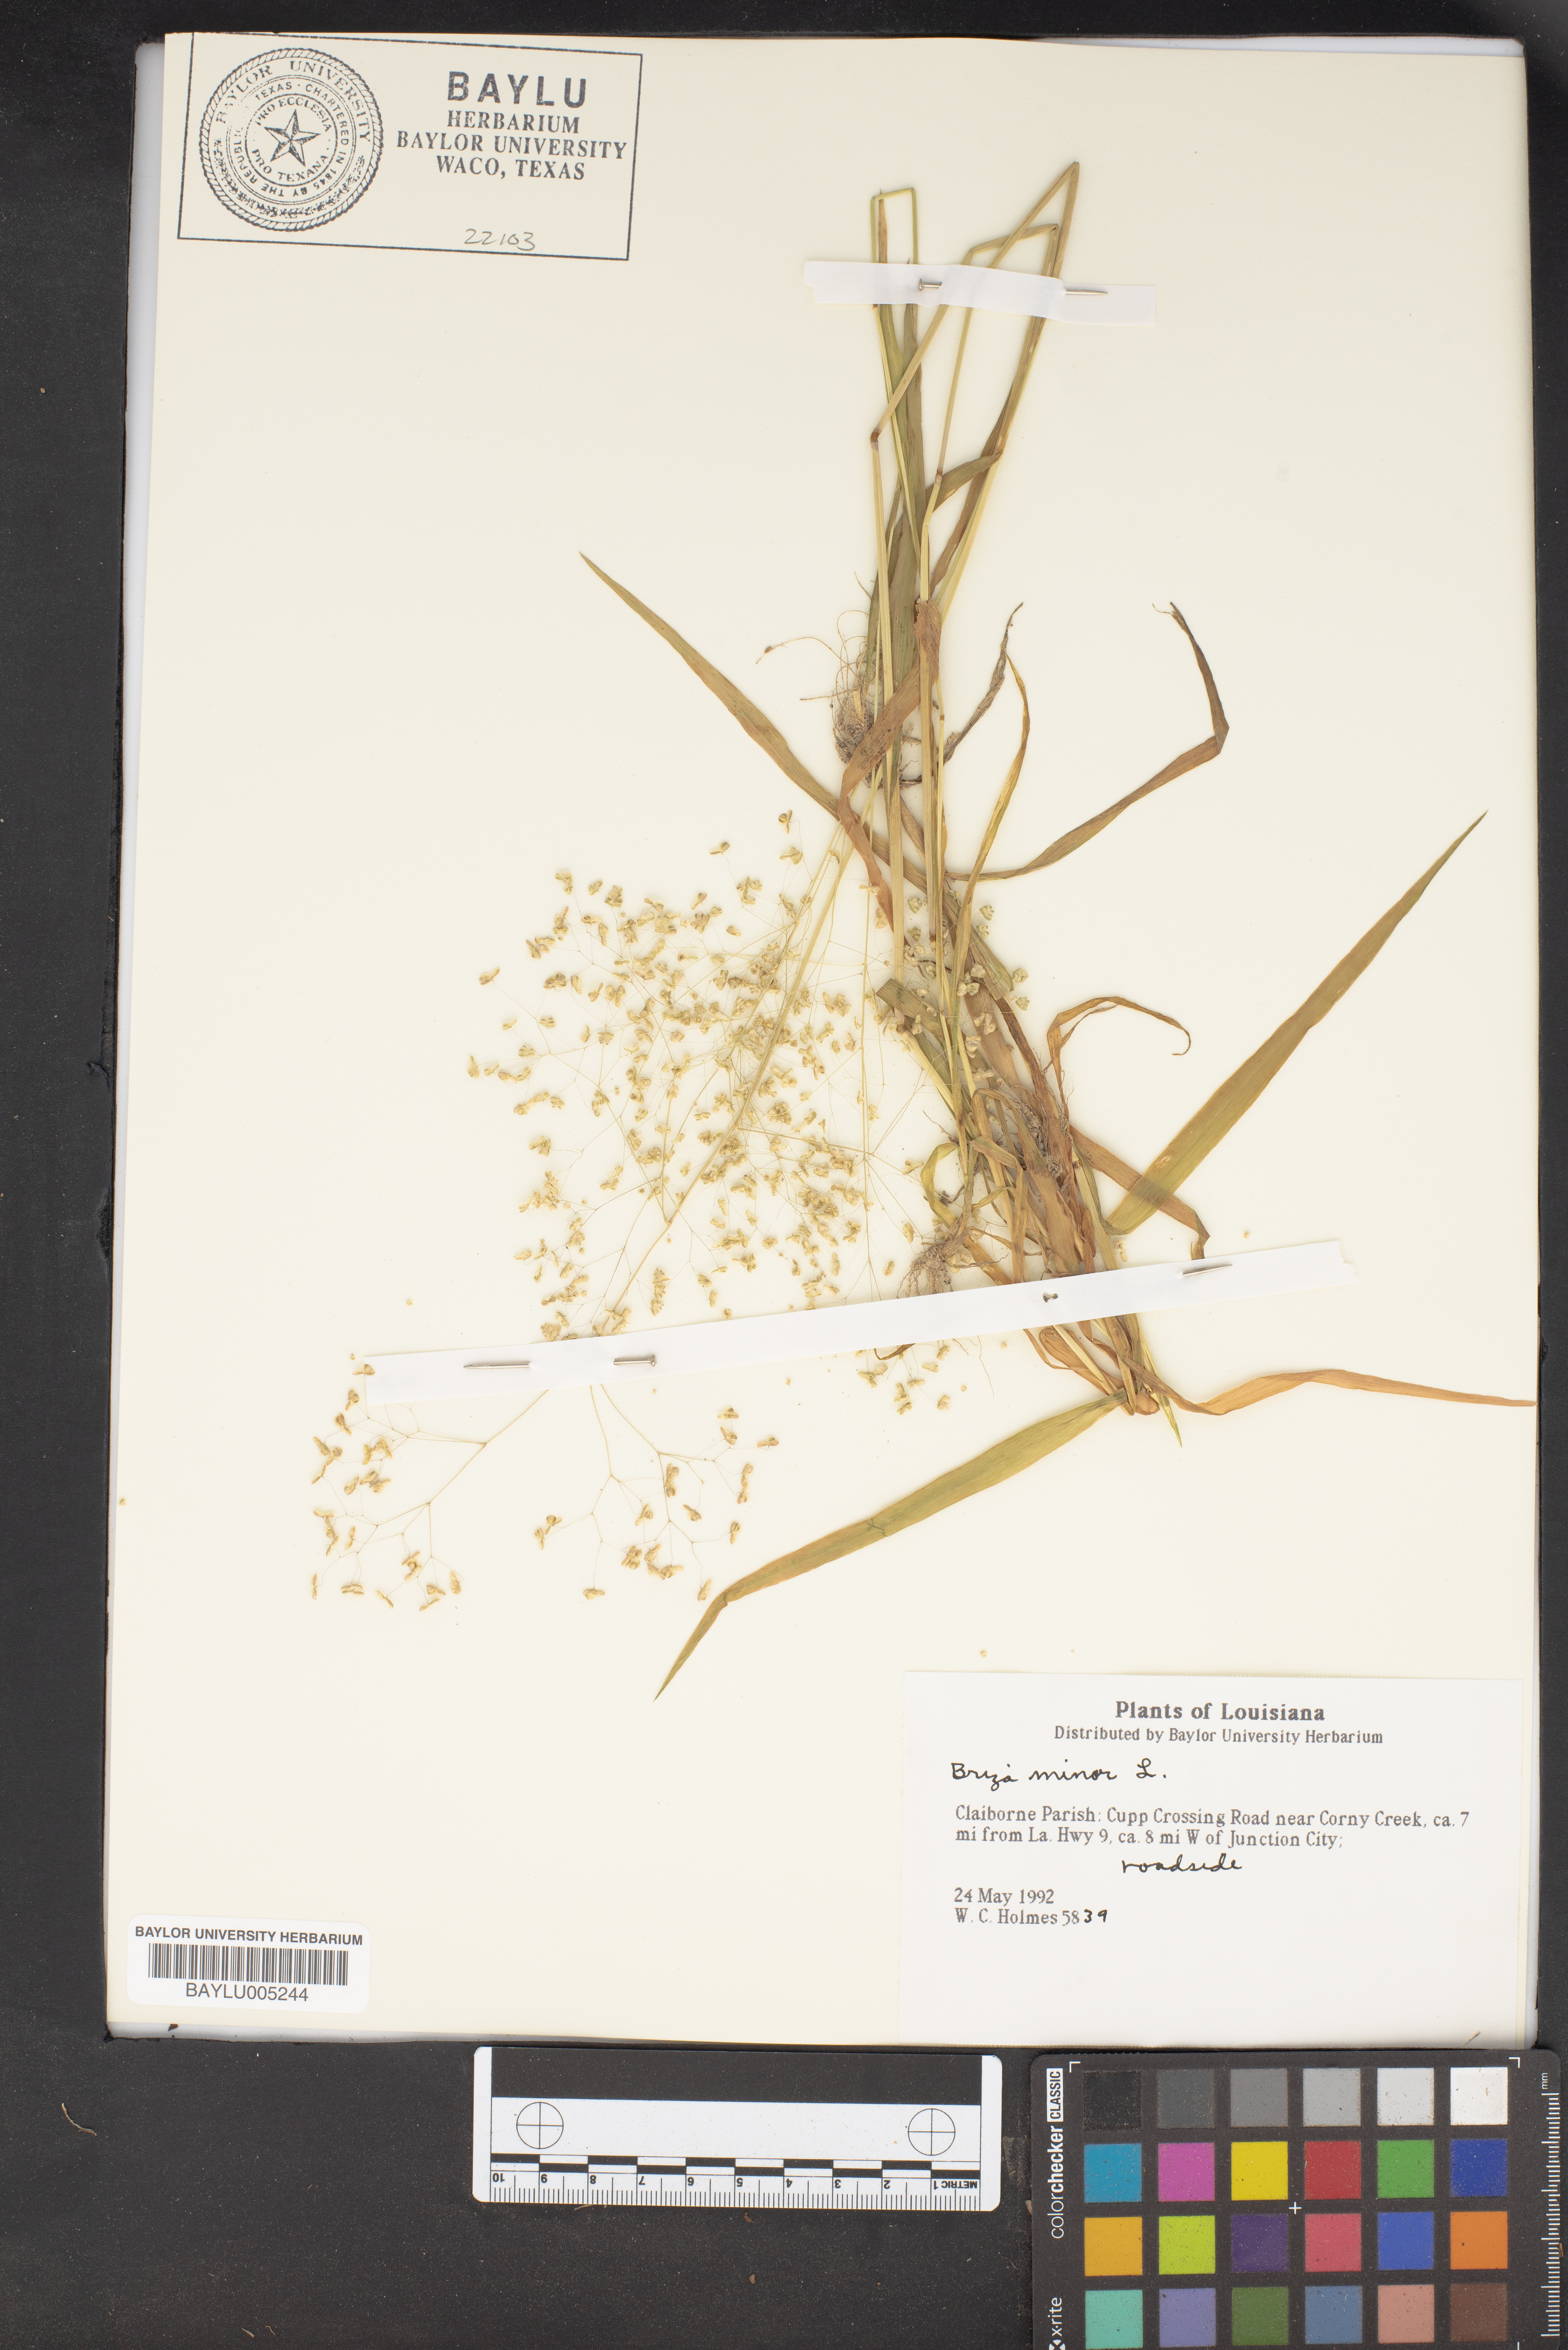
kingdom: Plantae
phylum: Tracheophyta
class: Liliopsida
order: Poales
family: Poaceae
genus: Briza
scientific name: Briza minor
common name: Lesser quaking-grass
